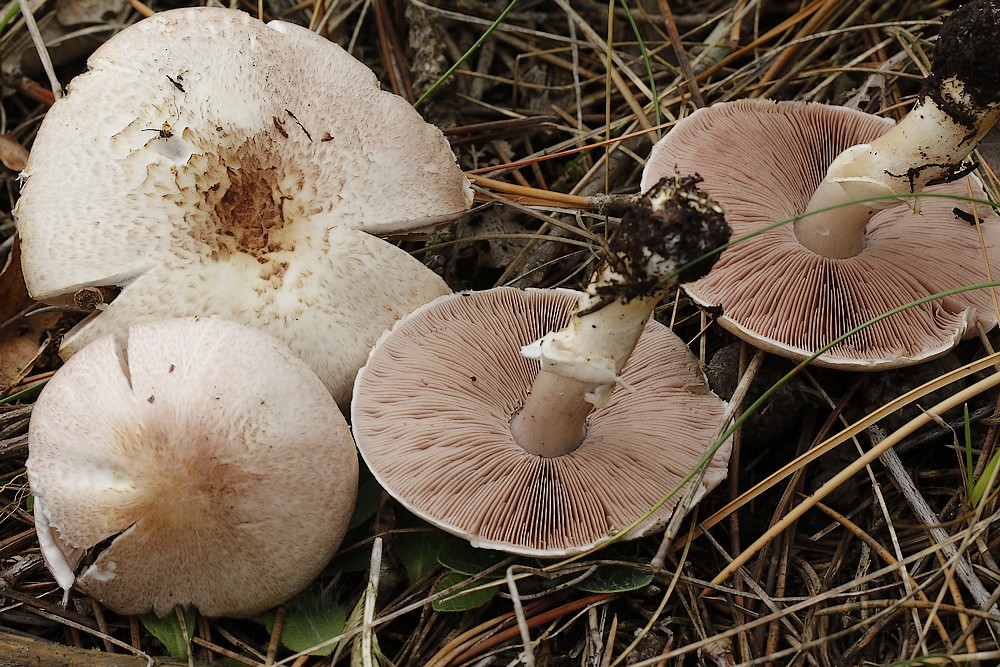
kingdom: Fungi
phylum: Basidiomycota
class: Agaricomycetes
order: Agaricales
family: Agaricaceae
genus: Agaricus
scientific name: Agaricus
